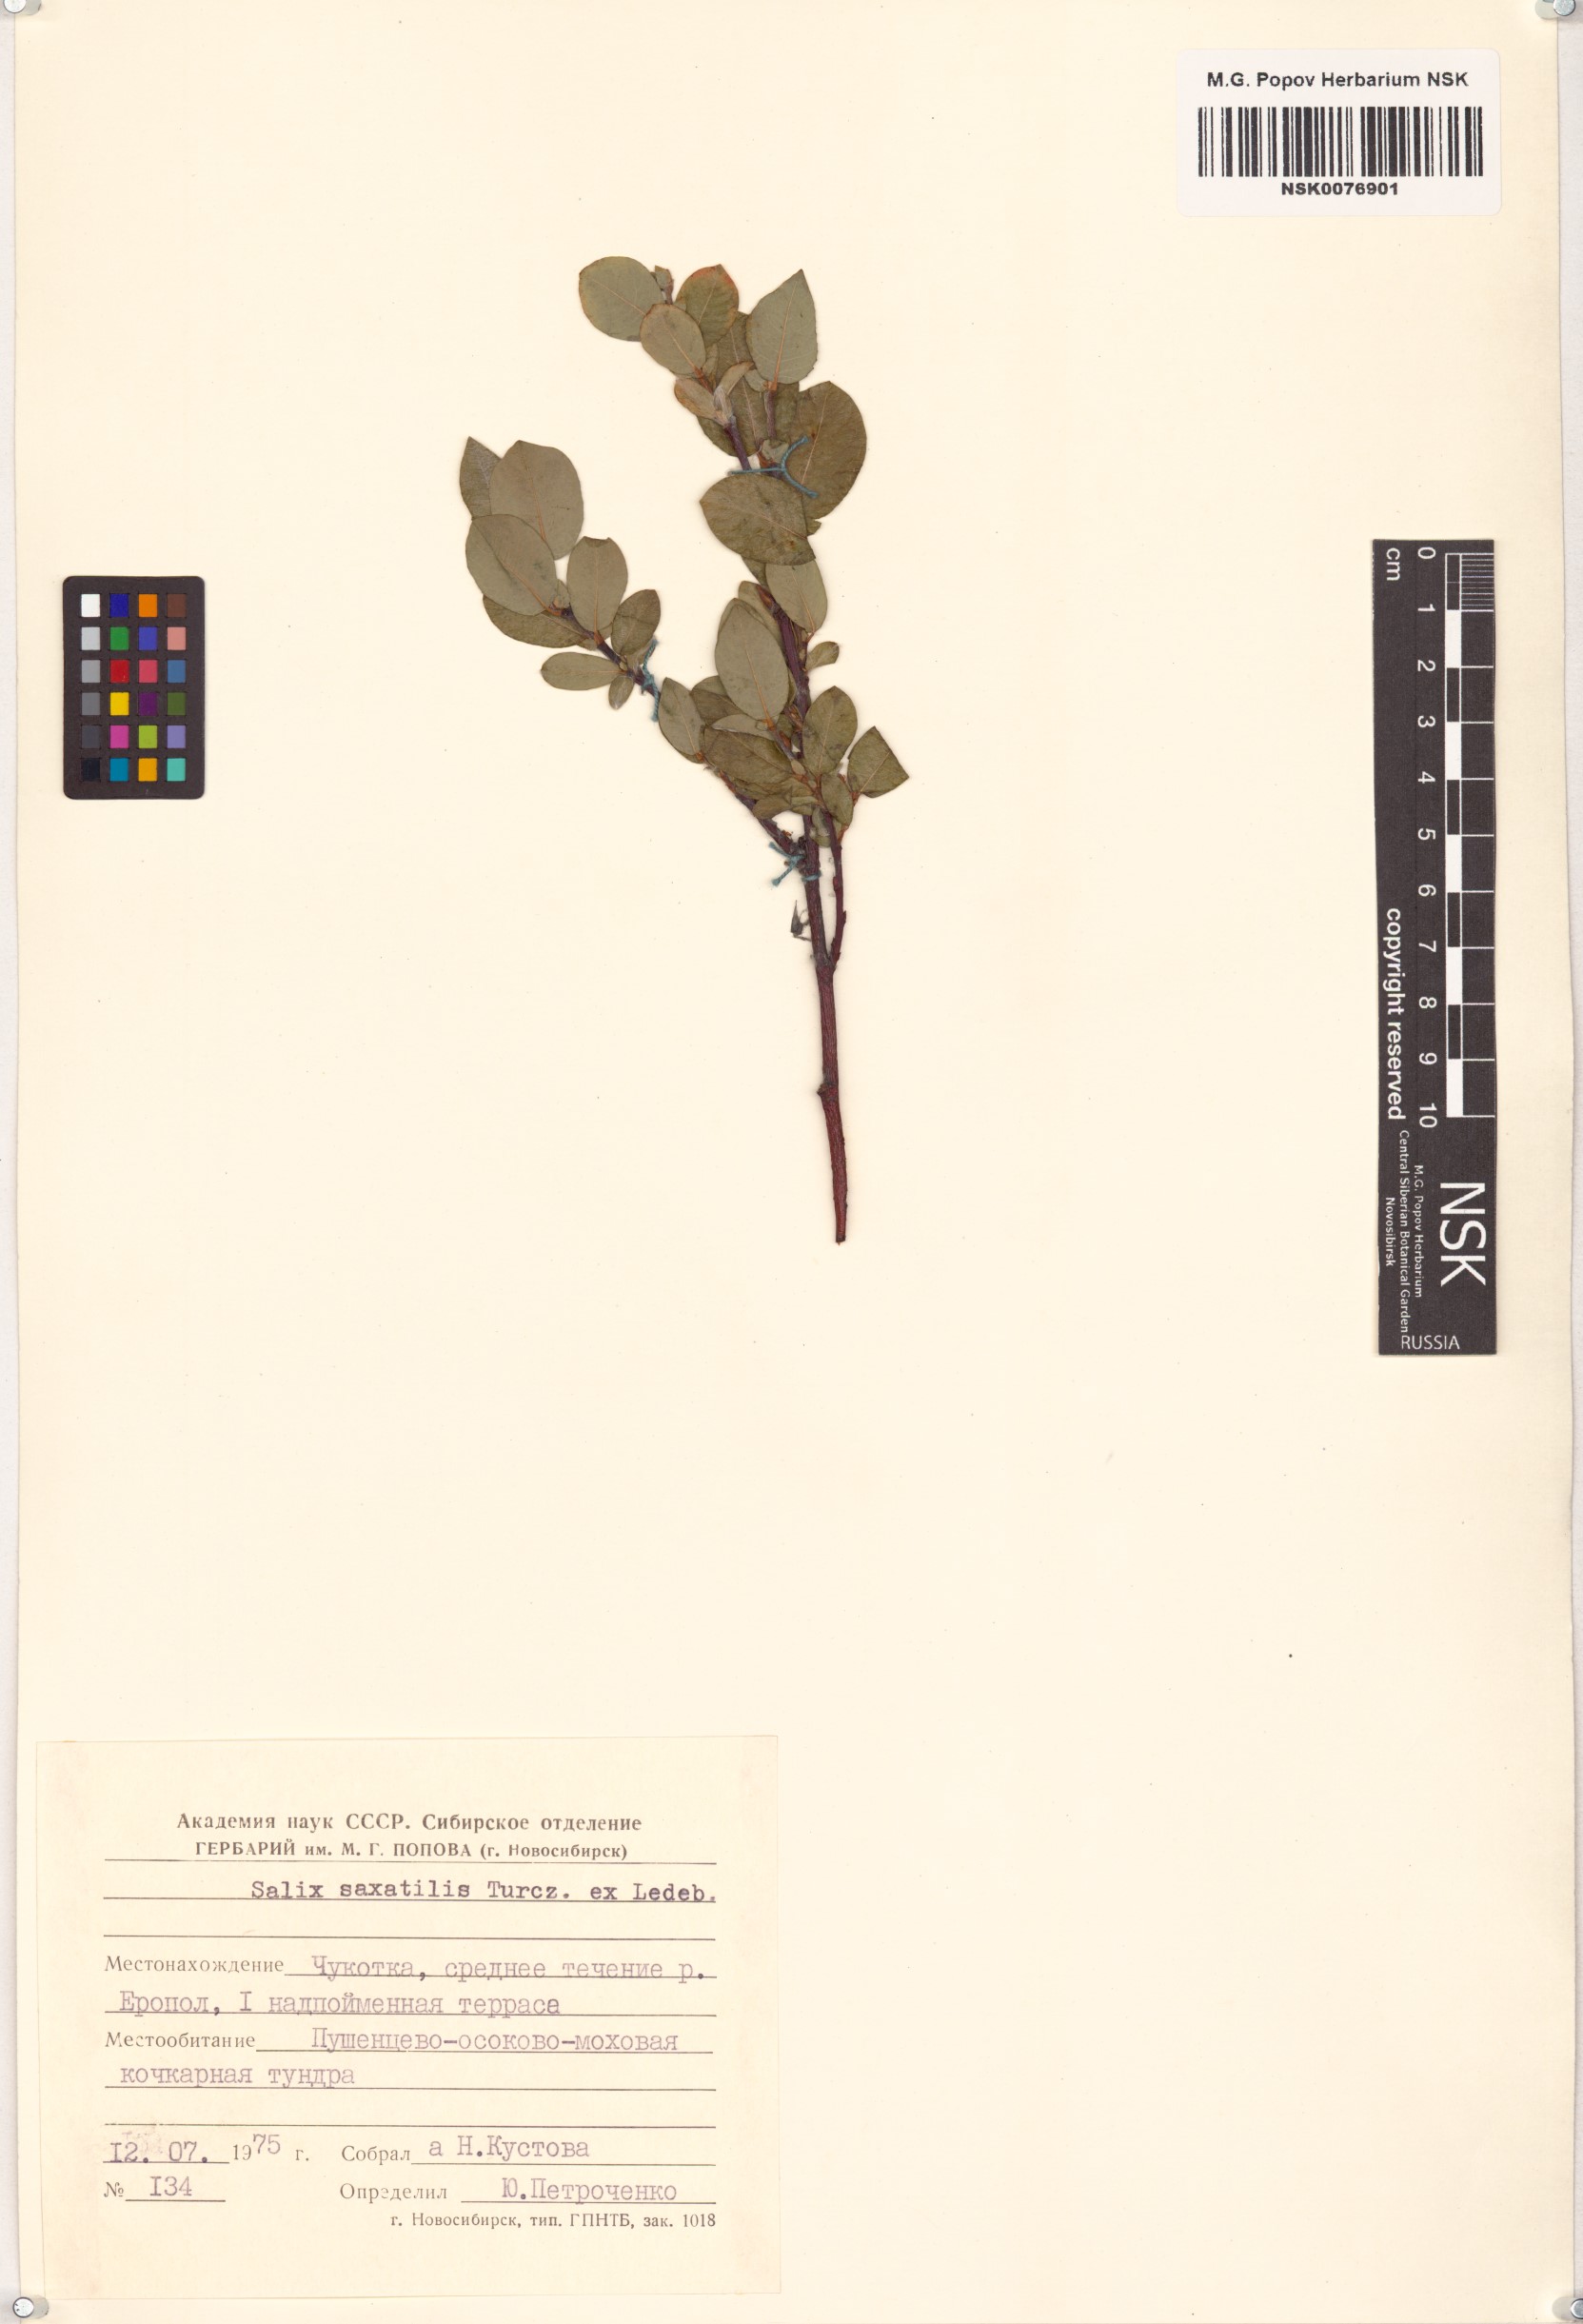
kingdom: Plantae
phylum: Tracheophyta
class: Magnoliopsida
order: Malpighiales
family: Salicaceae
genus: Salix
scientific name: Salix saxatilis
